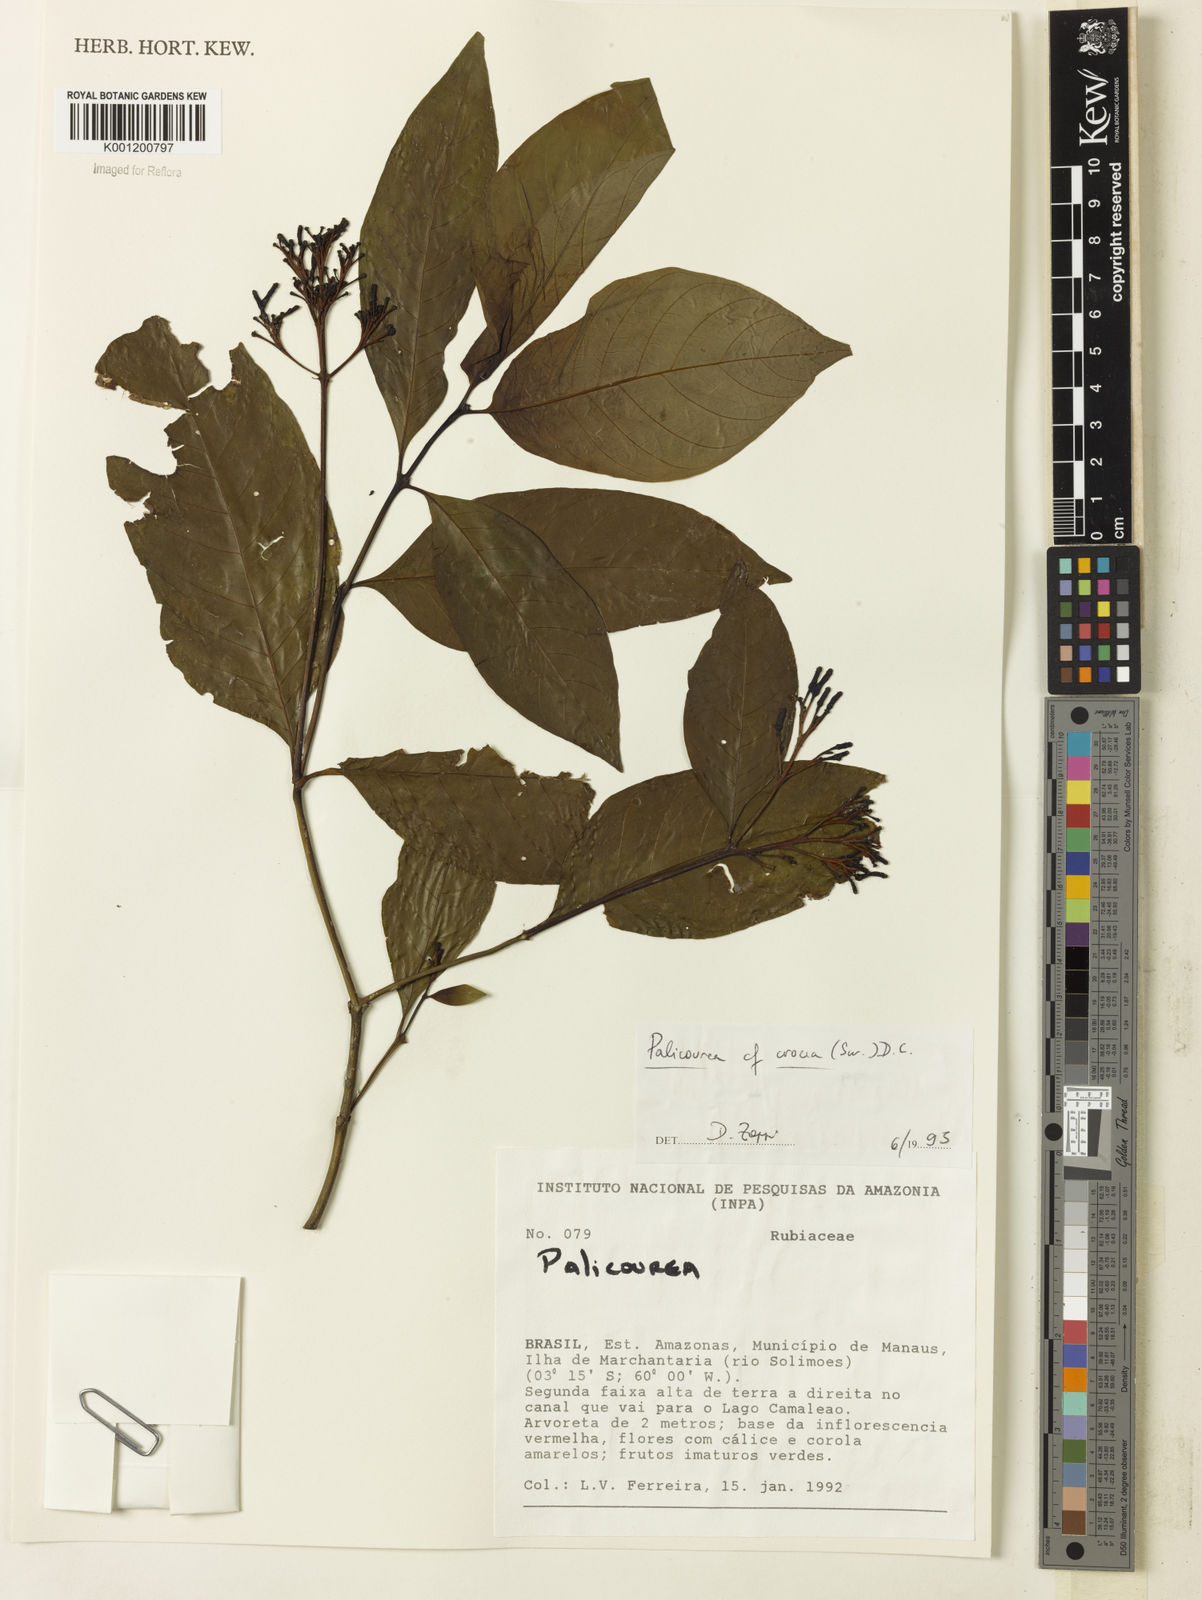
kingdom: Plantae
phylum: Tracheophyta
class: Magnoliopsida
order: Gentianales
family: Rubiaceae
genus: Palicourea
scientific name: Palicourea crocea
